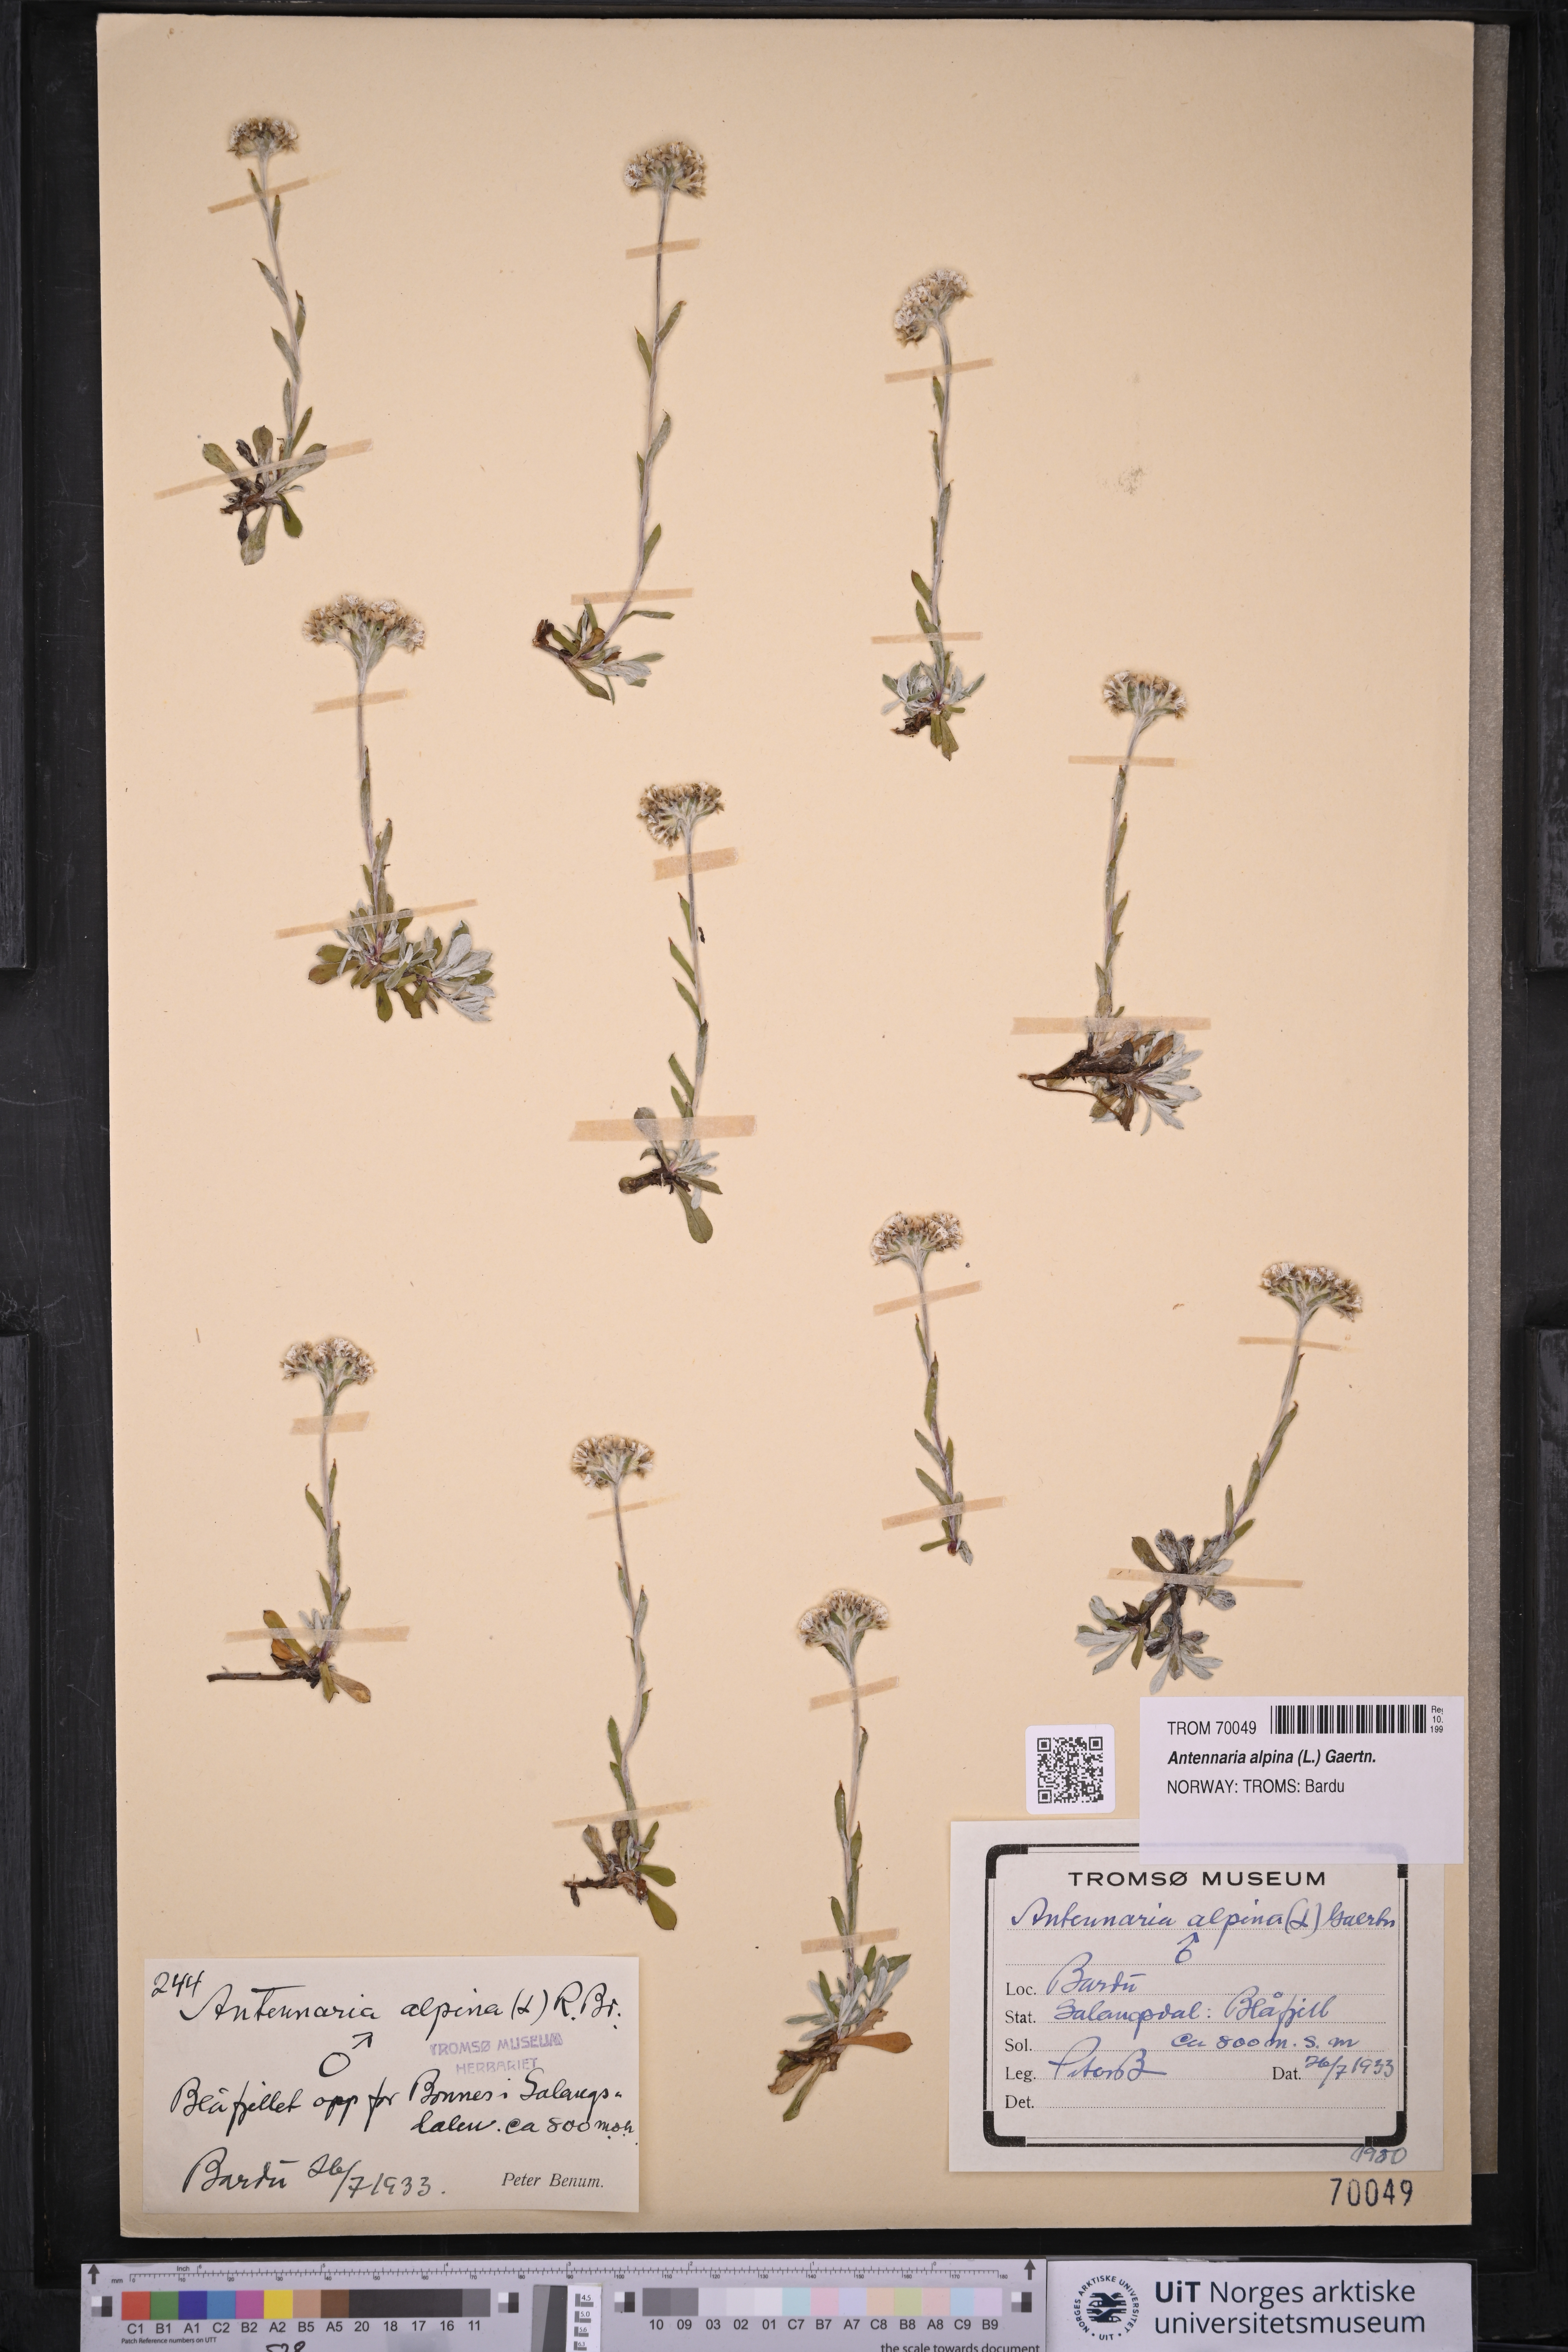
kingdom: Plantae
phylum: Tracheophyta
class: Magnoliopsida
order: Asterales
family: Asteraceae
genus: Antennaria
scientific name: Antennaria alpina
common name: Alpine pussytoes
